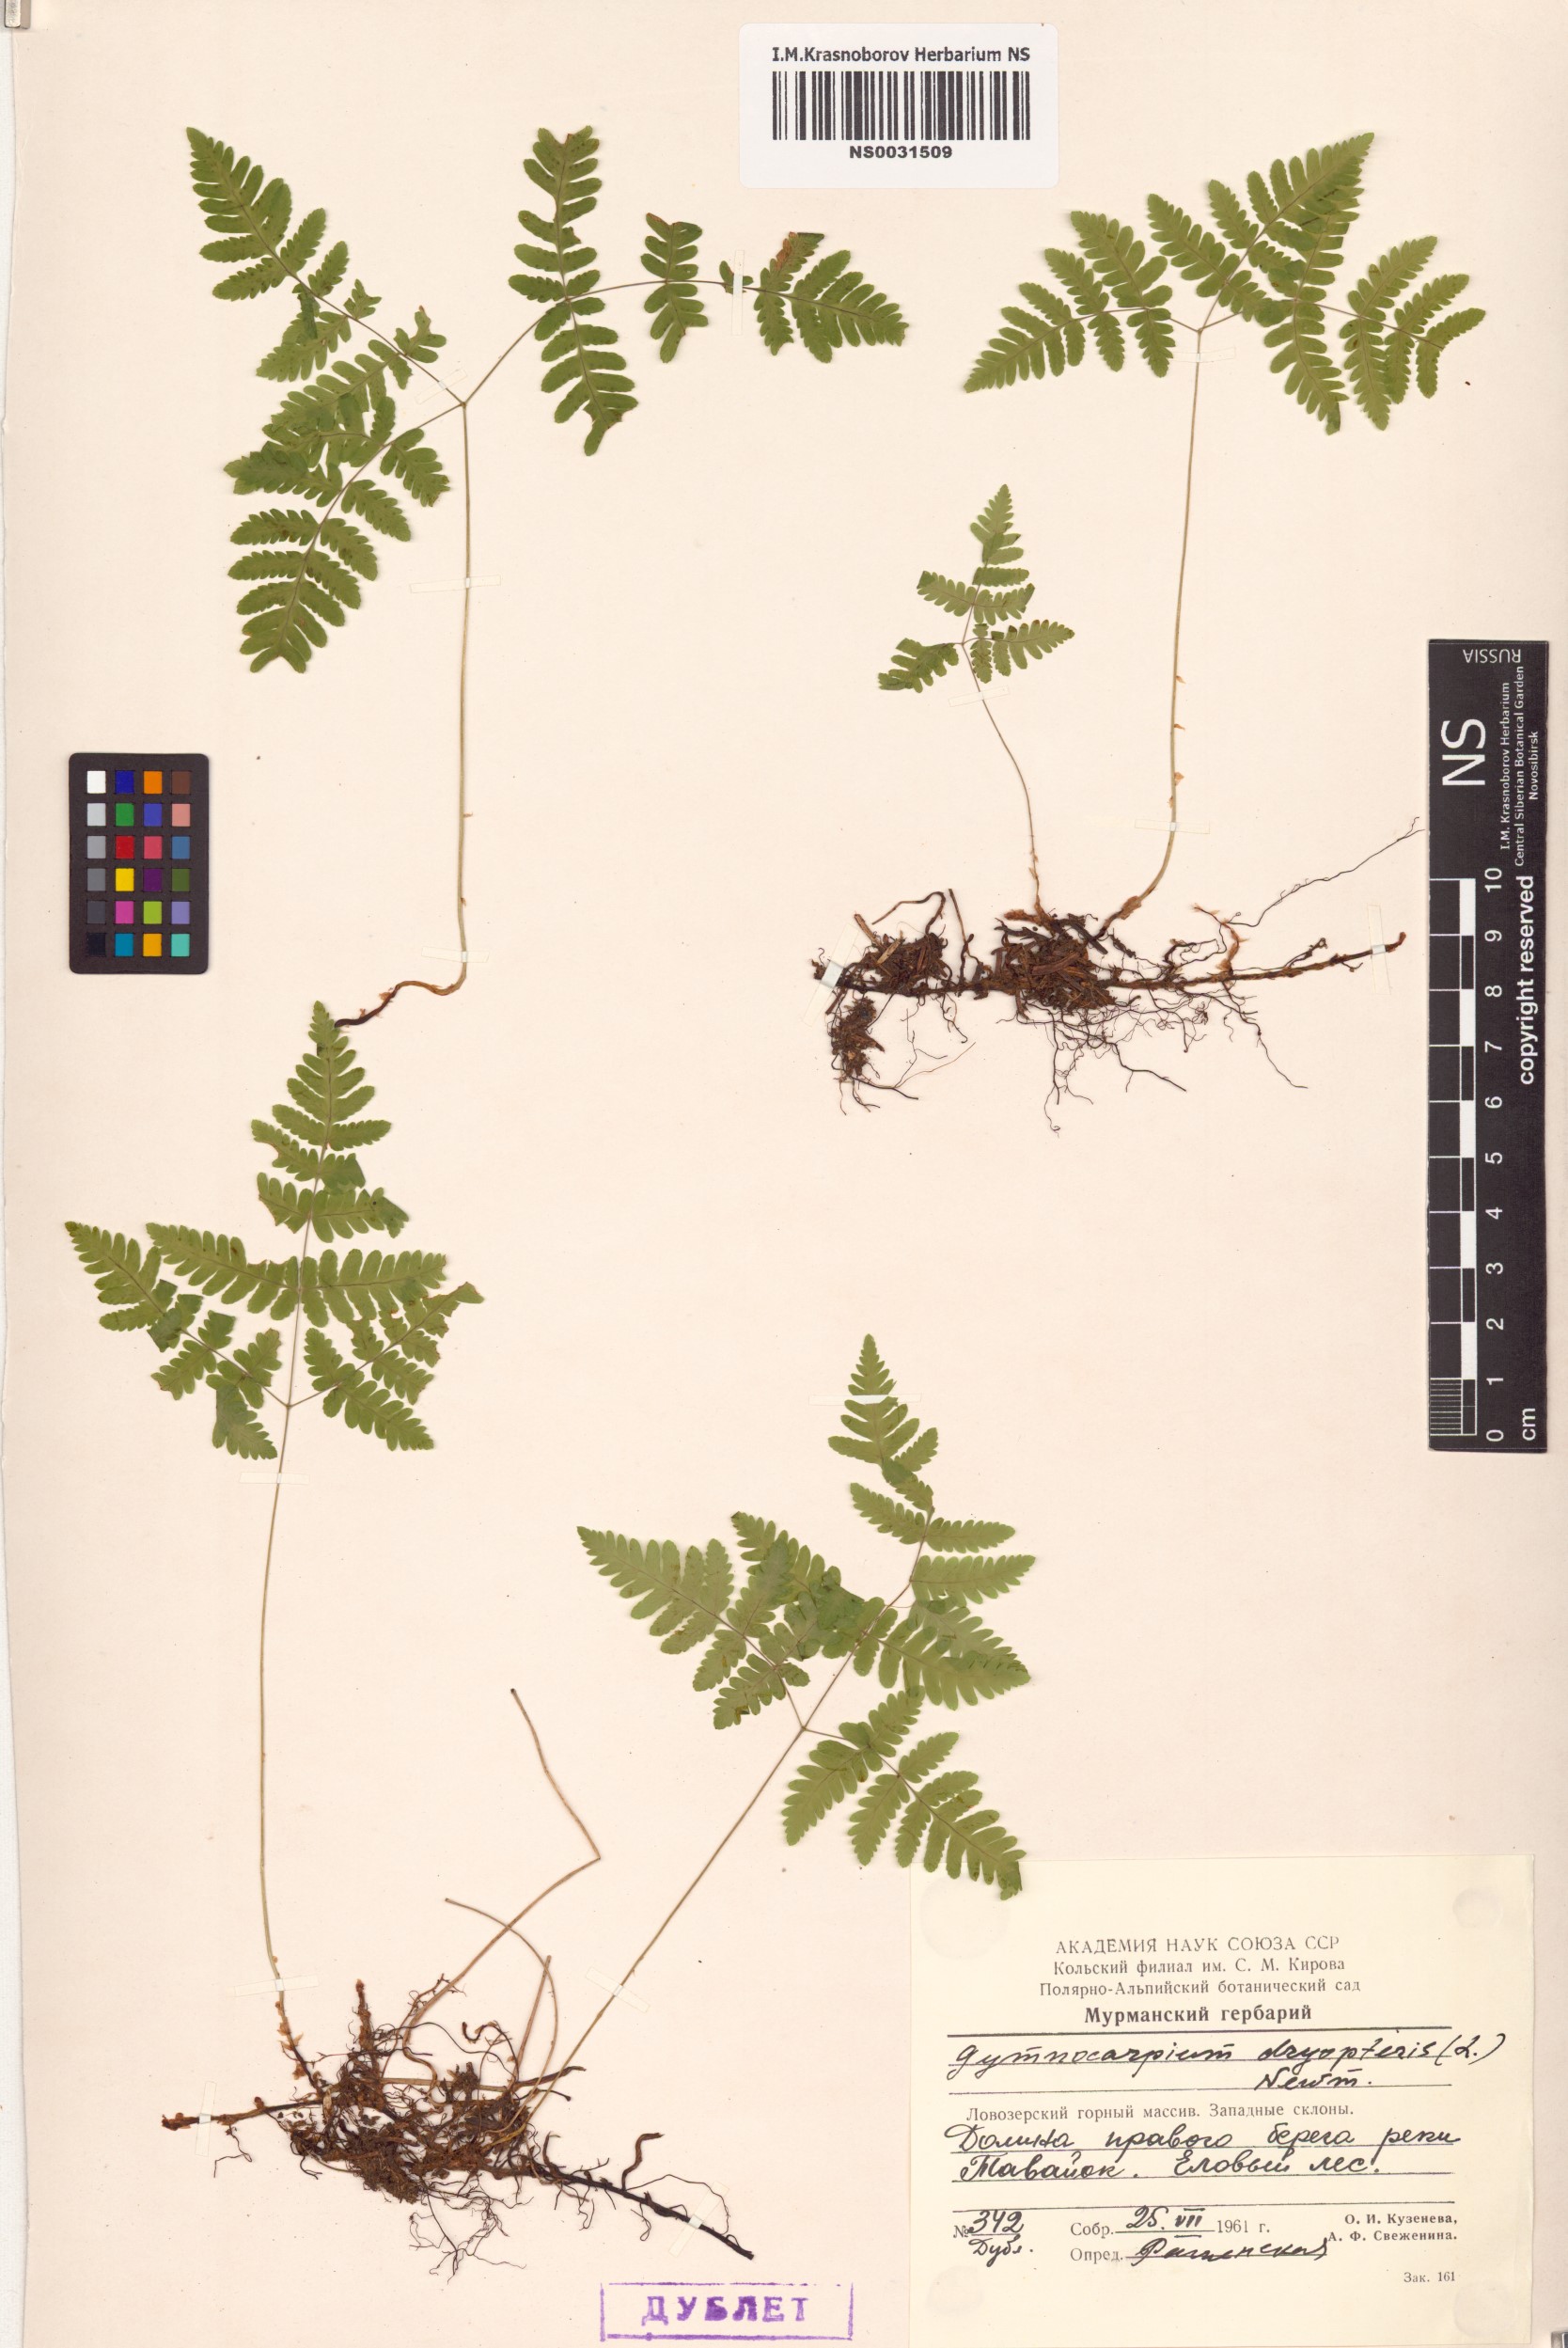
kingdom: Plantae
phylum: Tracheophyta
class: Polypodiopsida
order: Polypodiales
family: Cystopteridaceae
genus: Gymnocarpium
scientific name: Gymnocarpium dryopteris
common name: Oak fern
